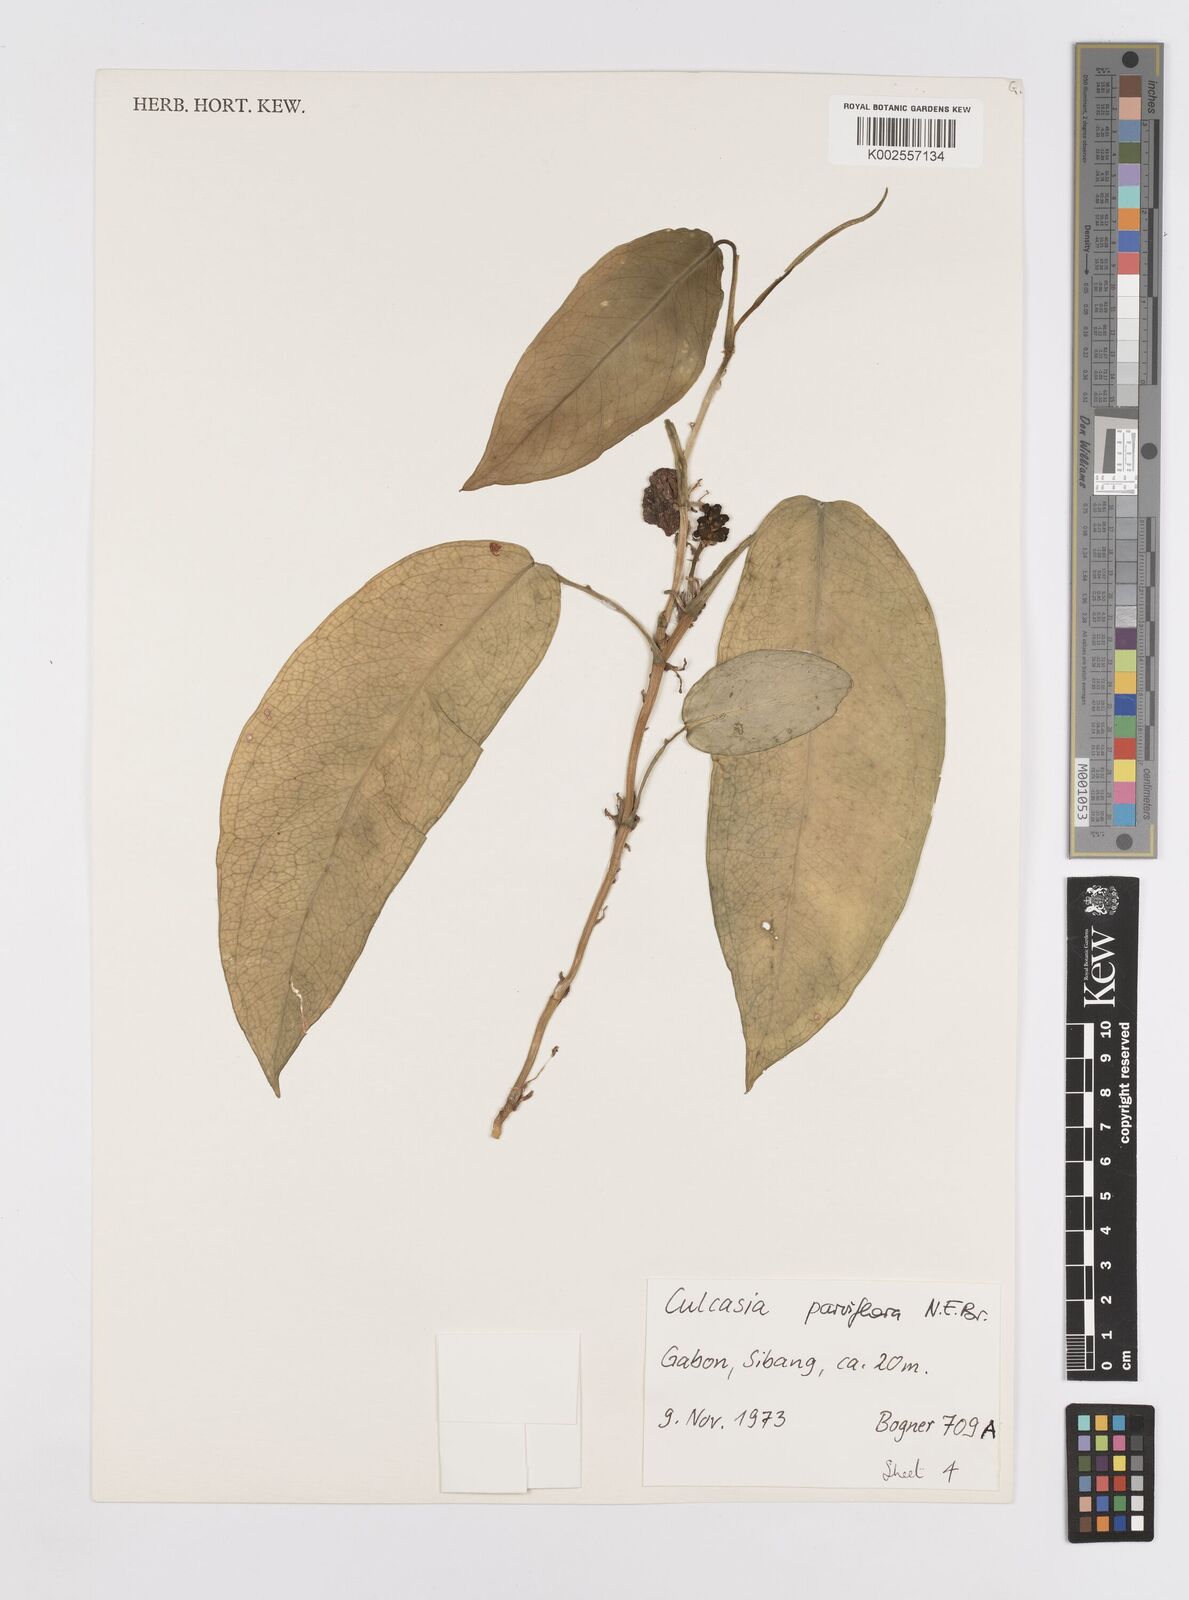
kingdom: Plantae
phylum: Tracheophyta
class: Liliopsida
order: Alismatales
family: Araceae
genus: Culcasia
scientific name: Culcasia parviflora
